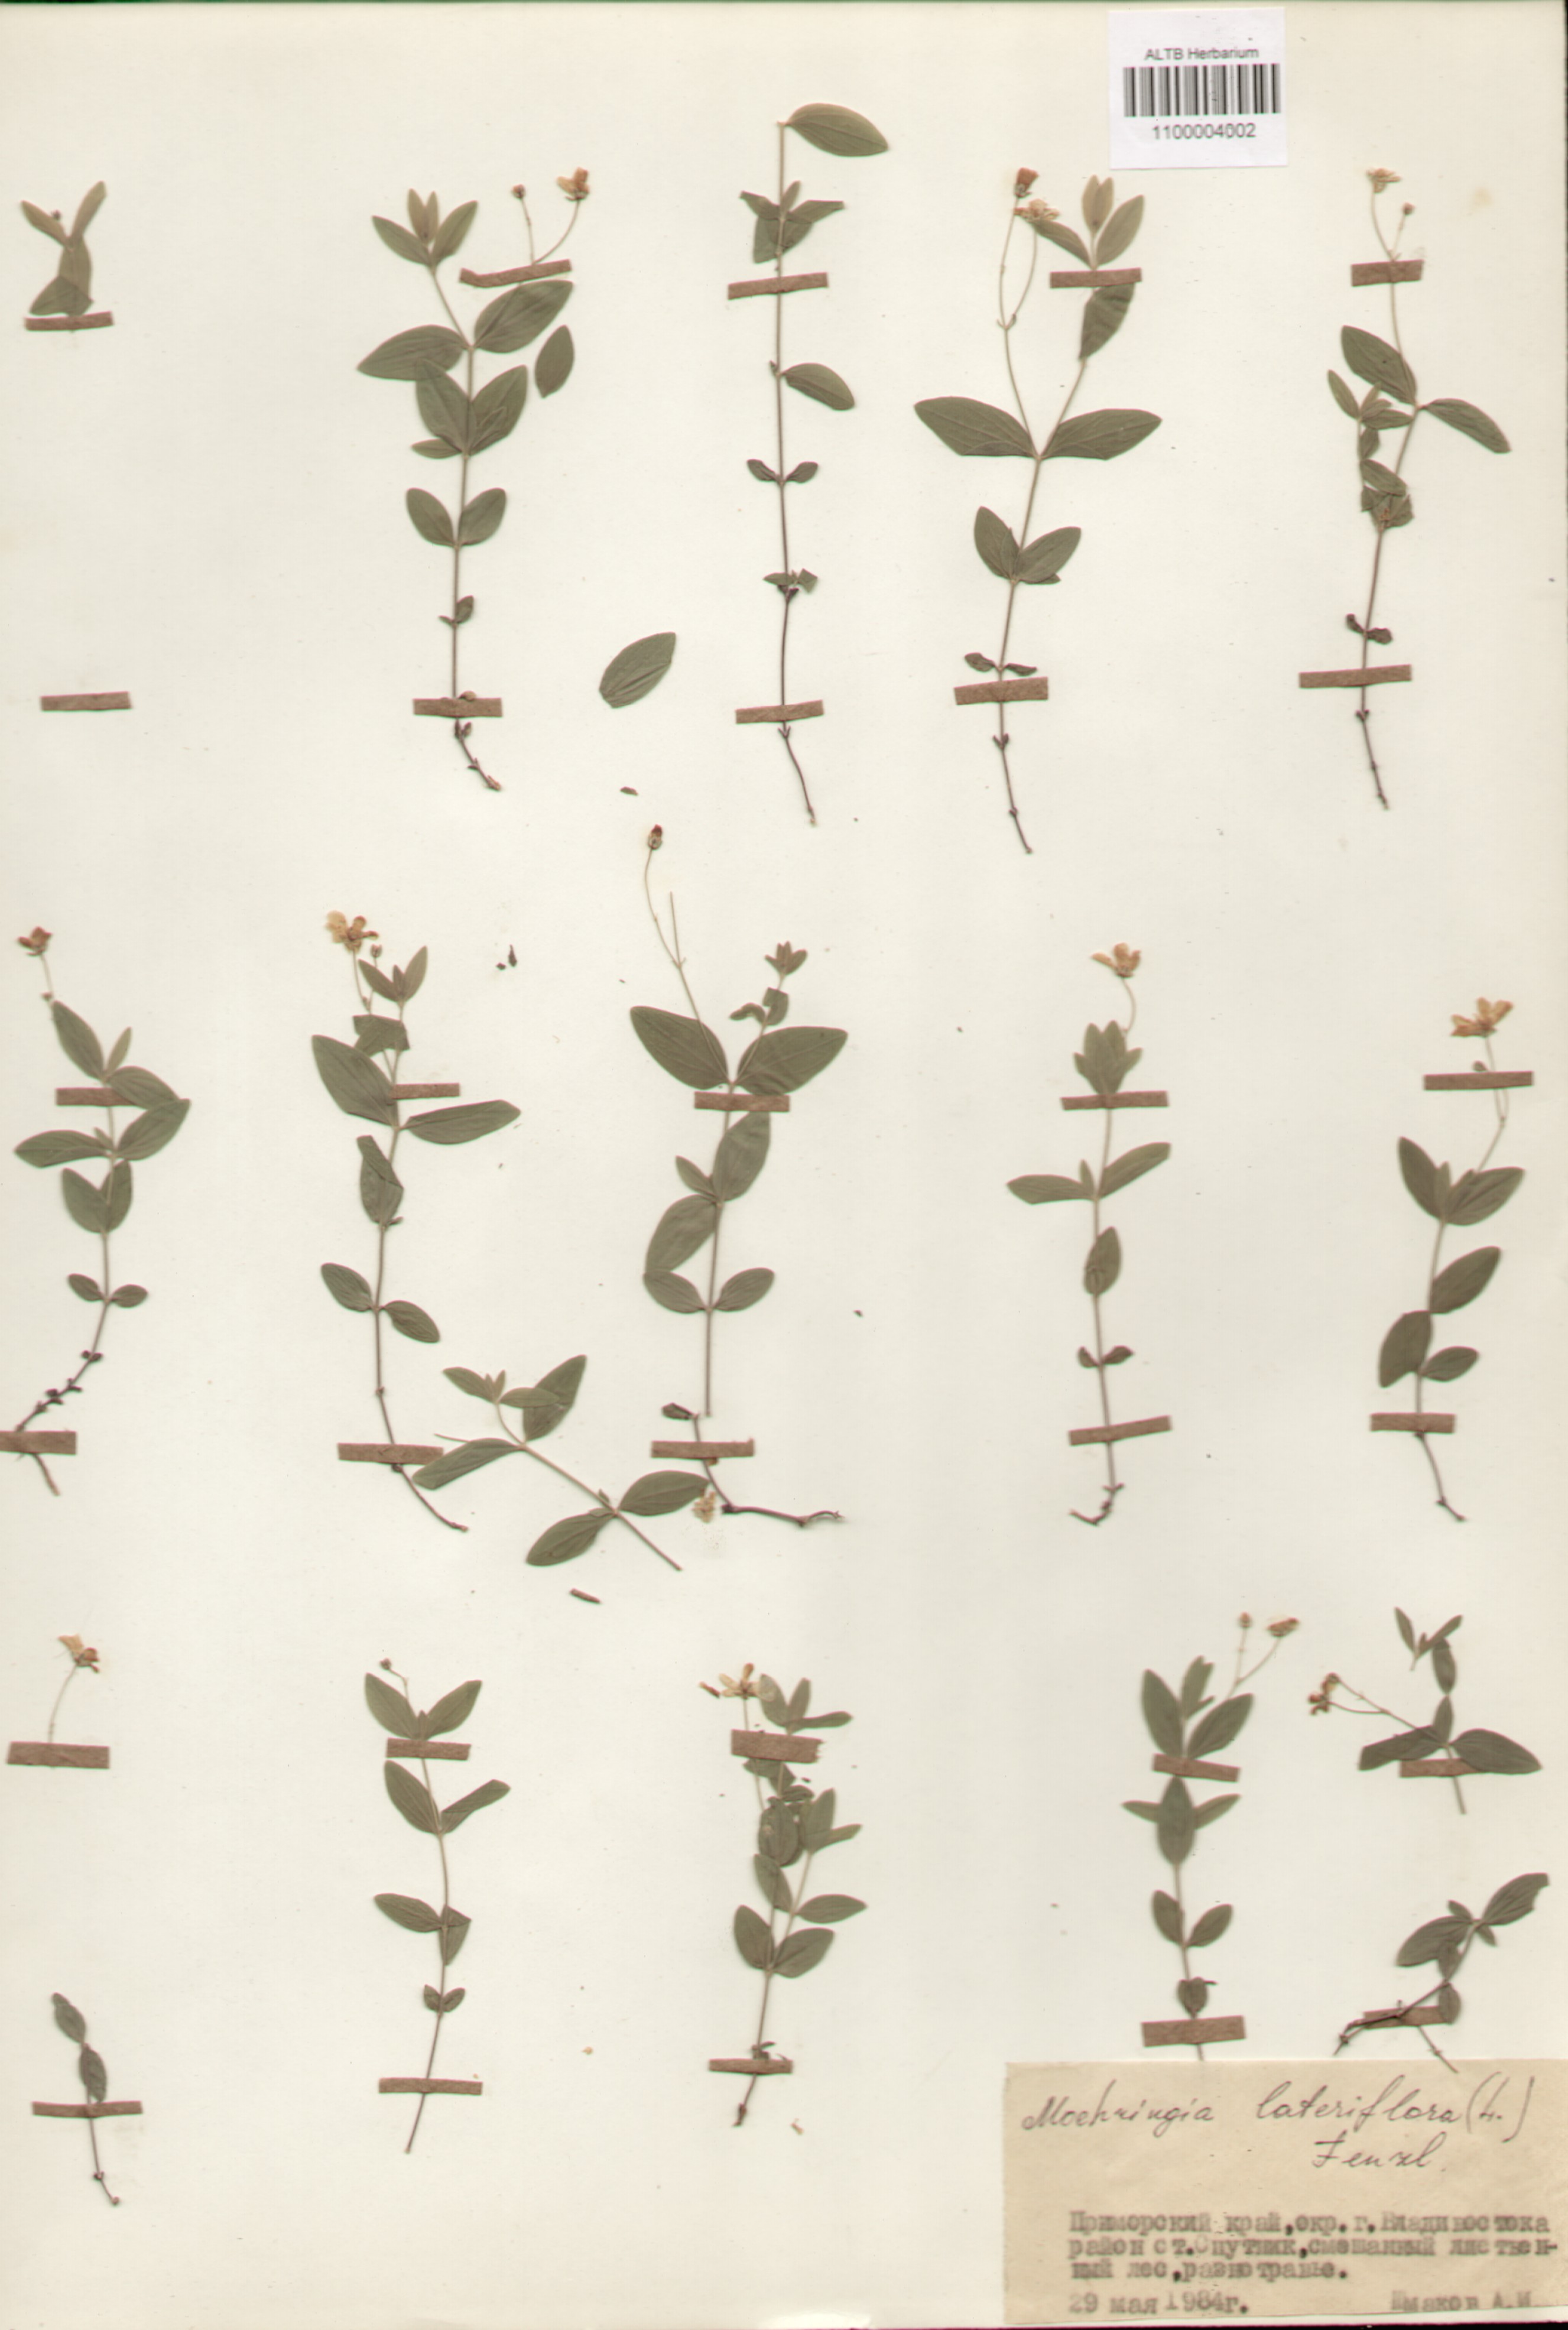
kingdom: Plantae
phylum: Tracheophyta
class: Magnoliopsida
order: Caryophyllales
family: Caryophyllaceae
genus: Moehringia
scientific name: Moehringia lateriflora
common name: Blunt-leaved sandwort
